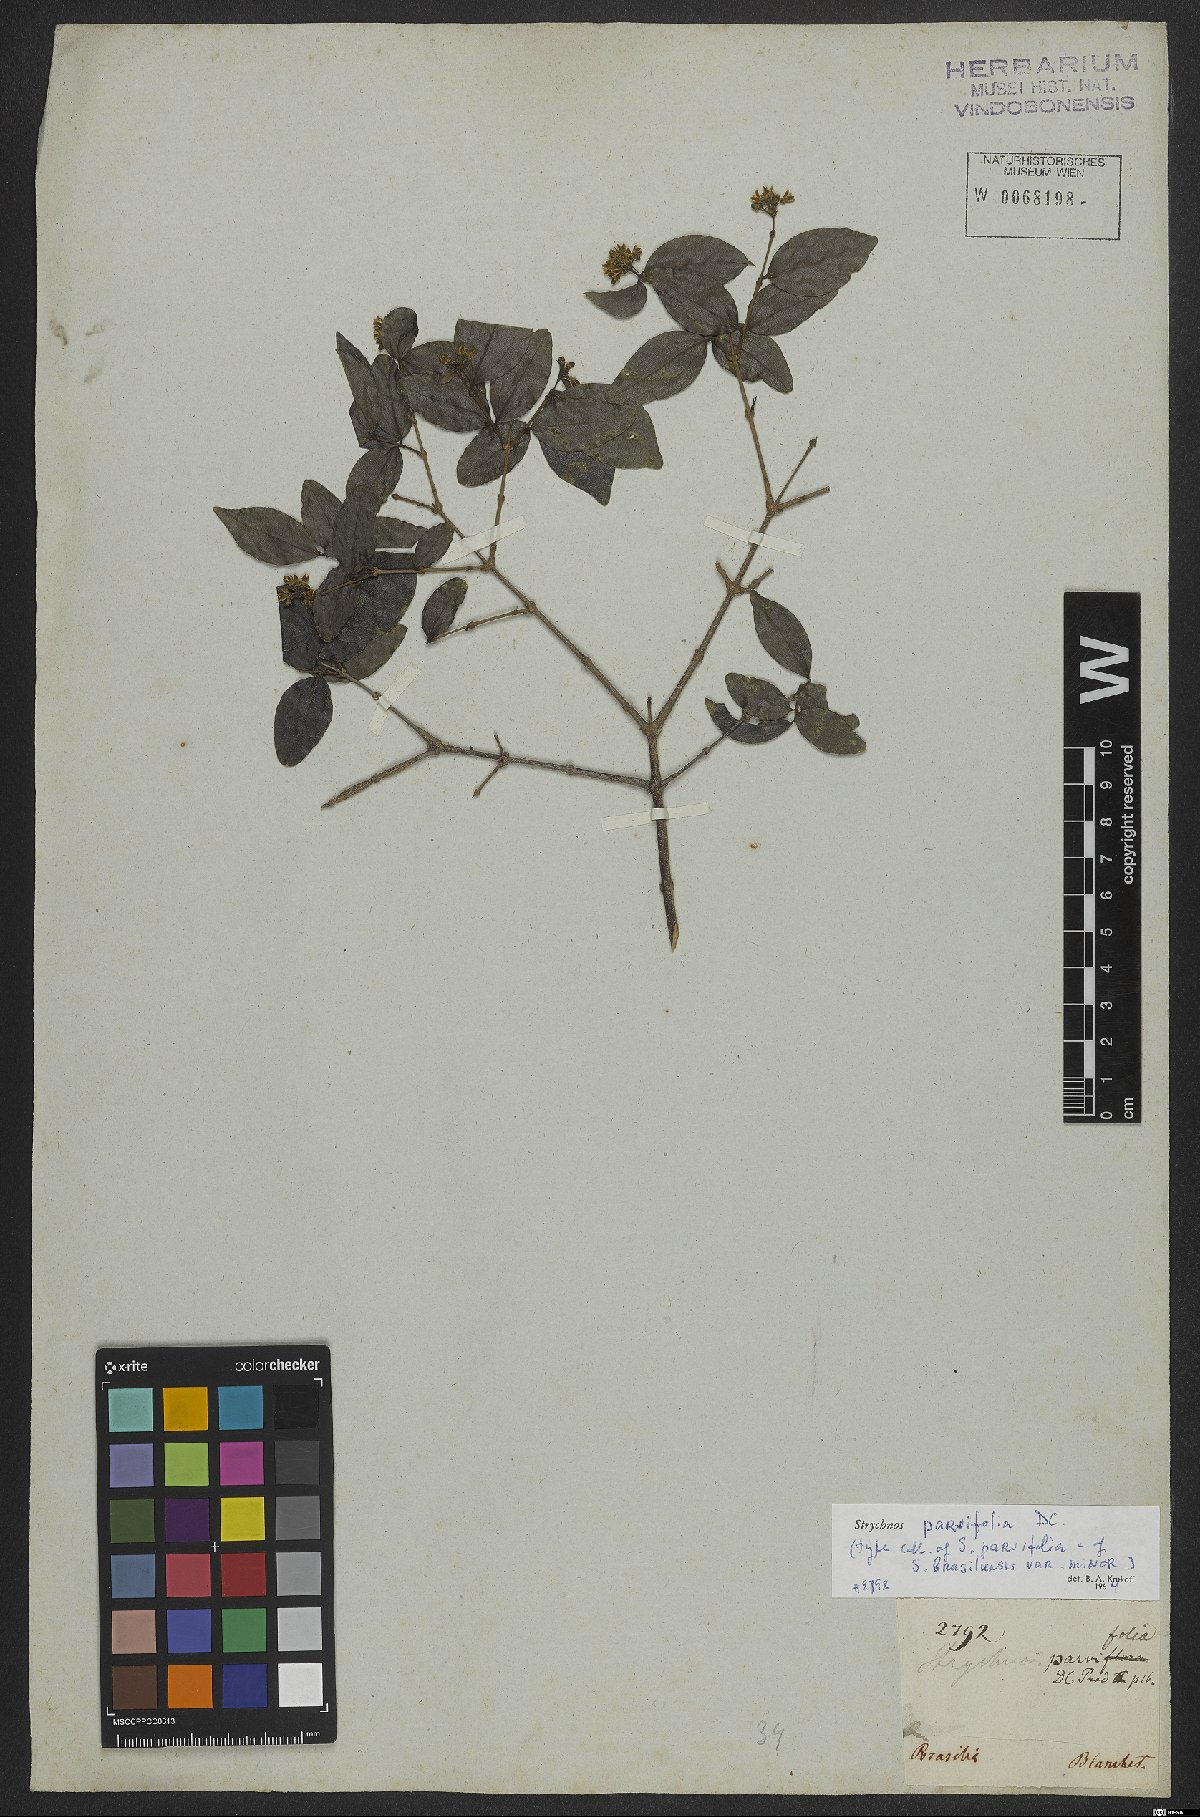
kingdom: Plantae
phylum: Tracheophyta
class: Magnoliopsida
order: Gentianales
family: Loganiaceae
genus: Strychnos
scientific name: Strychnos parvifolia
